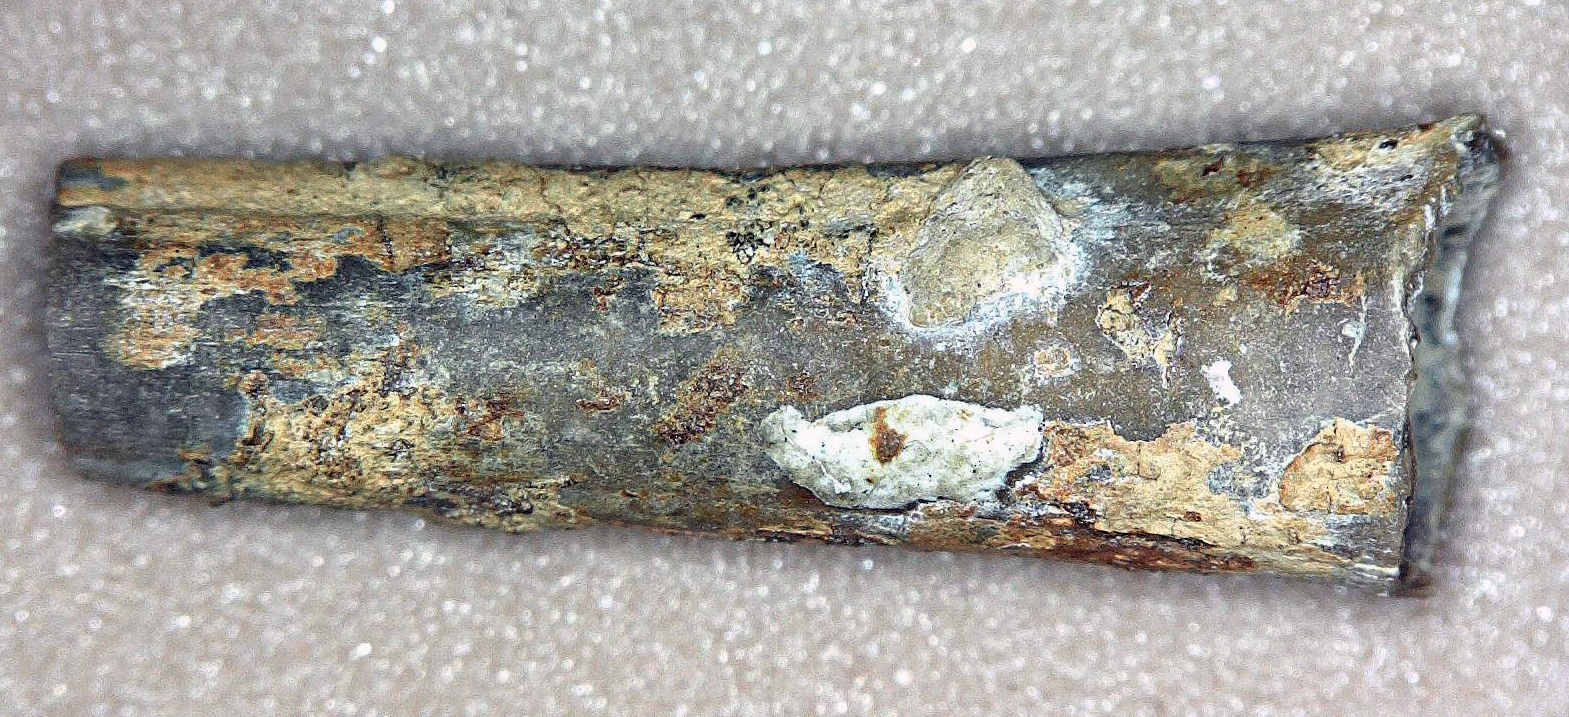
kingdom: Animalia
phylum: Mollusca
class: Cephalopoda
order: Belemnitida
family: Salpingoteuthididae
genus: Salpingoteuthis
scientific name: Salpingoteuthis trisulcata
